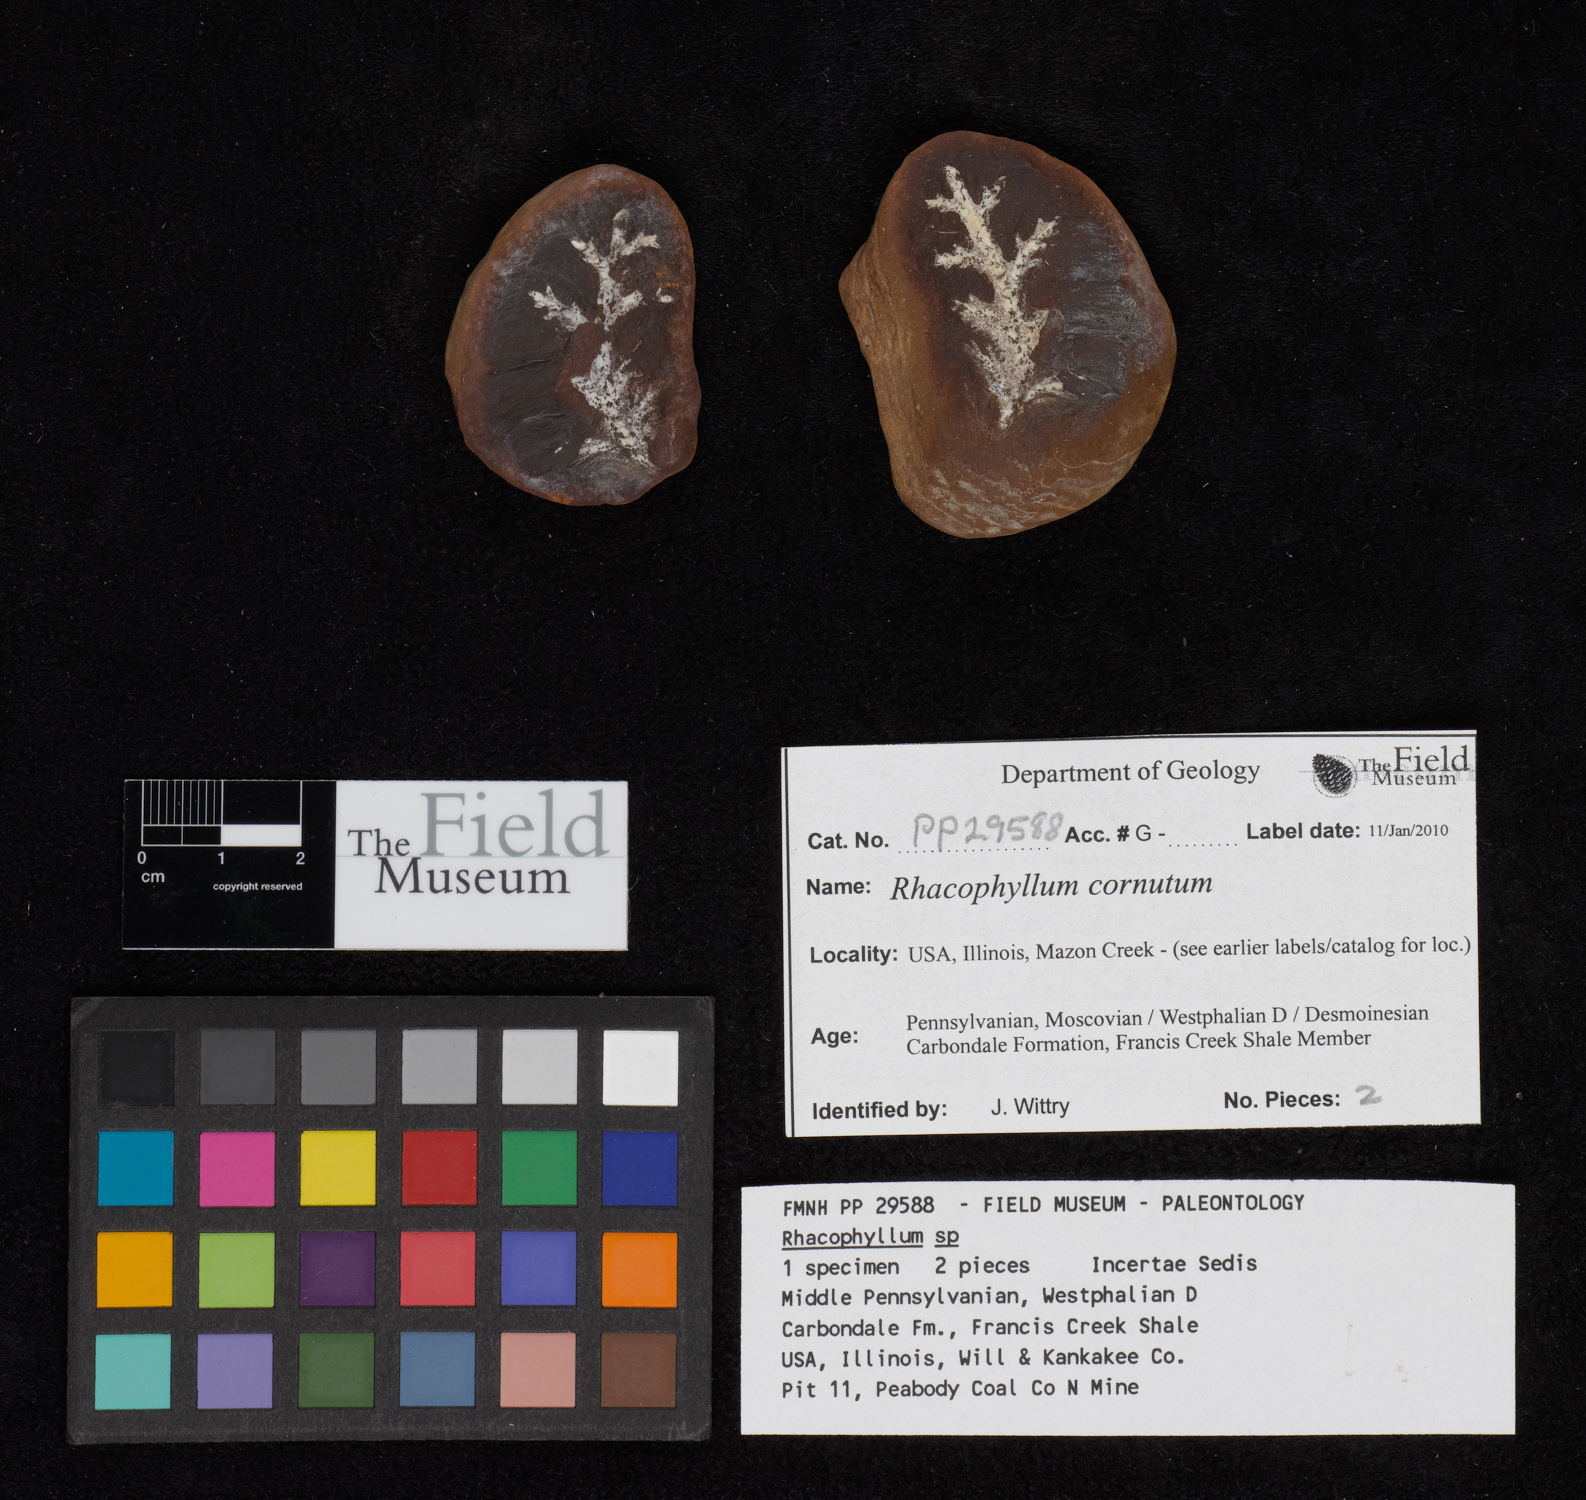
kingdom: Plantae
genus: Rhacophyllum
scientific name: Rhacophyllum
